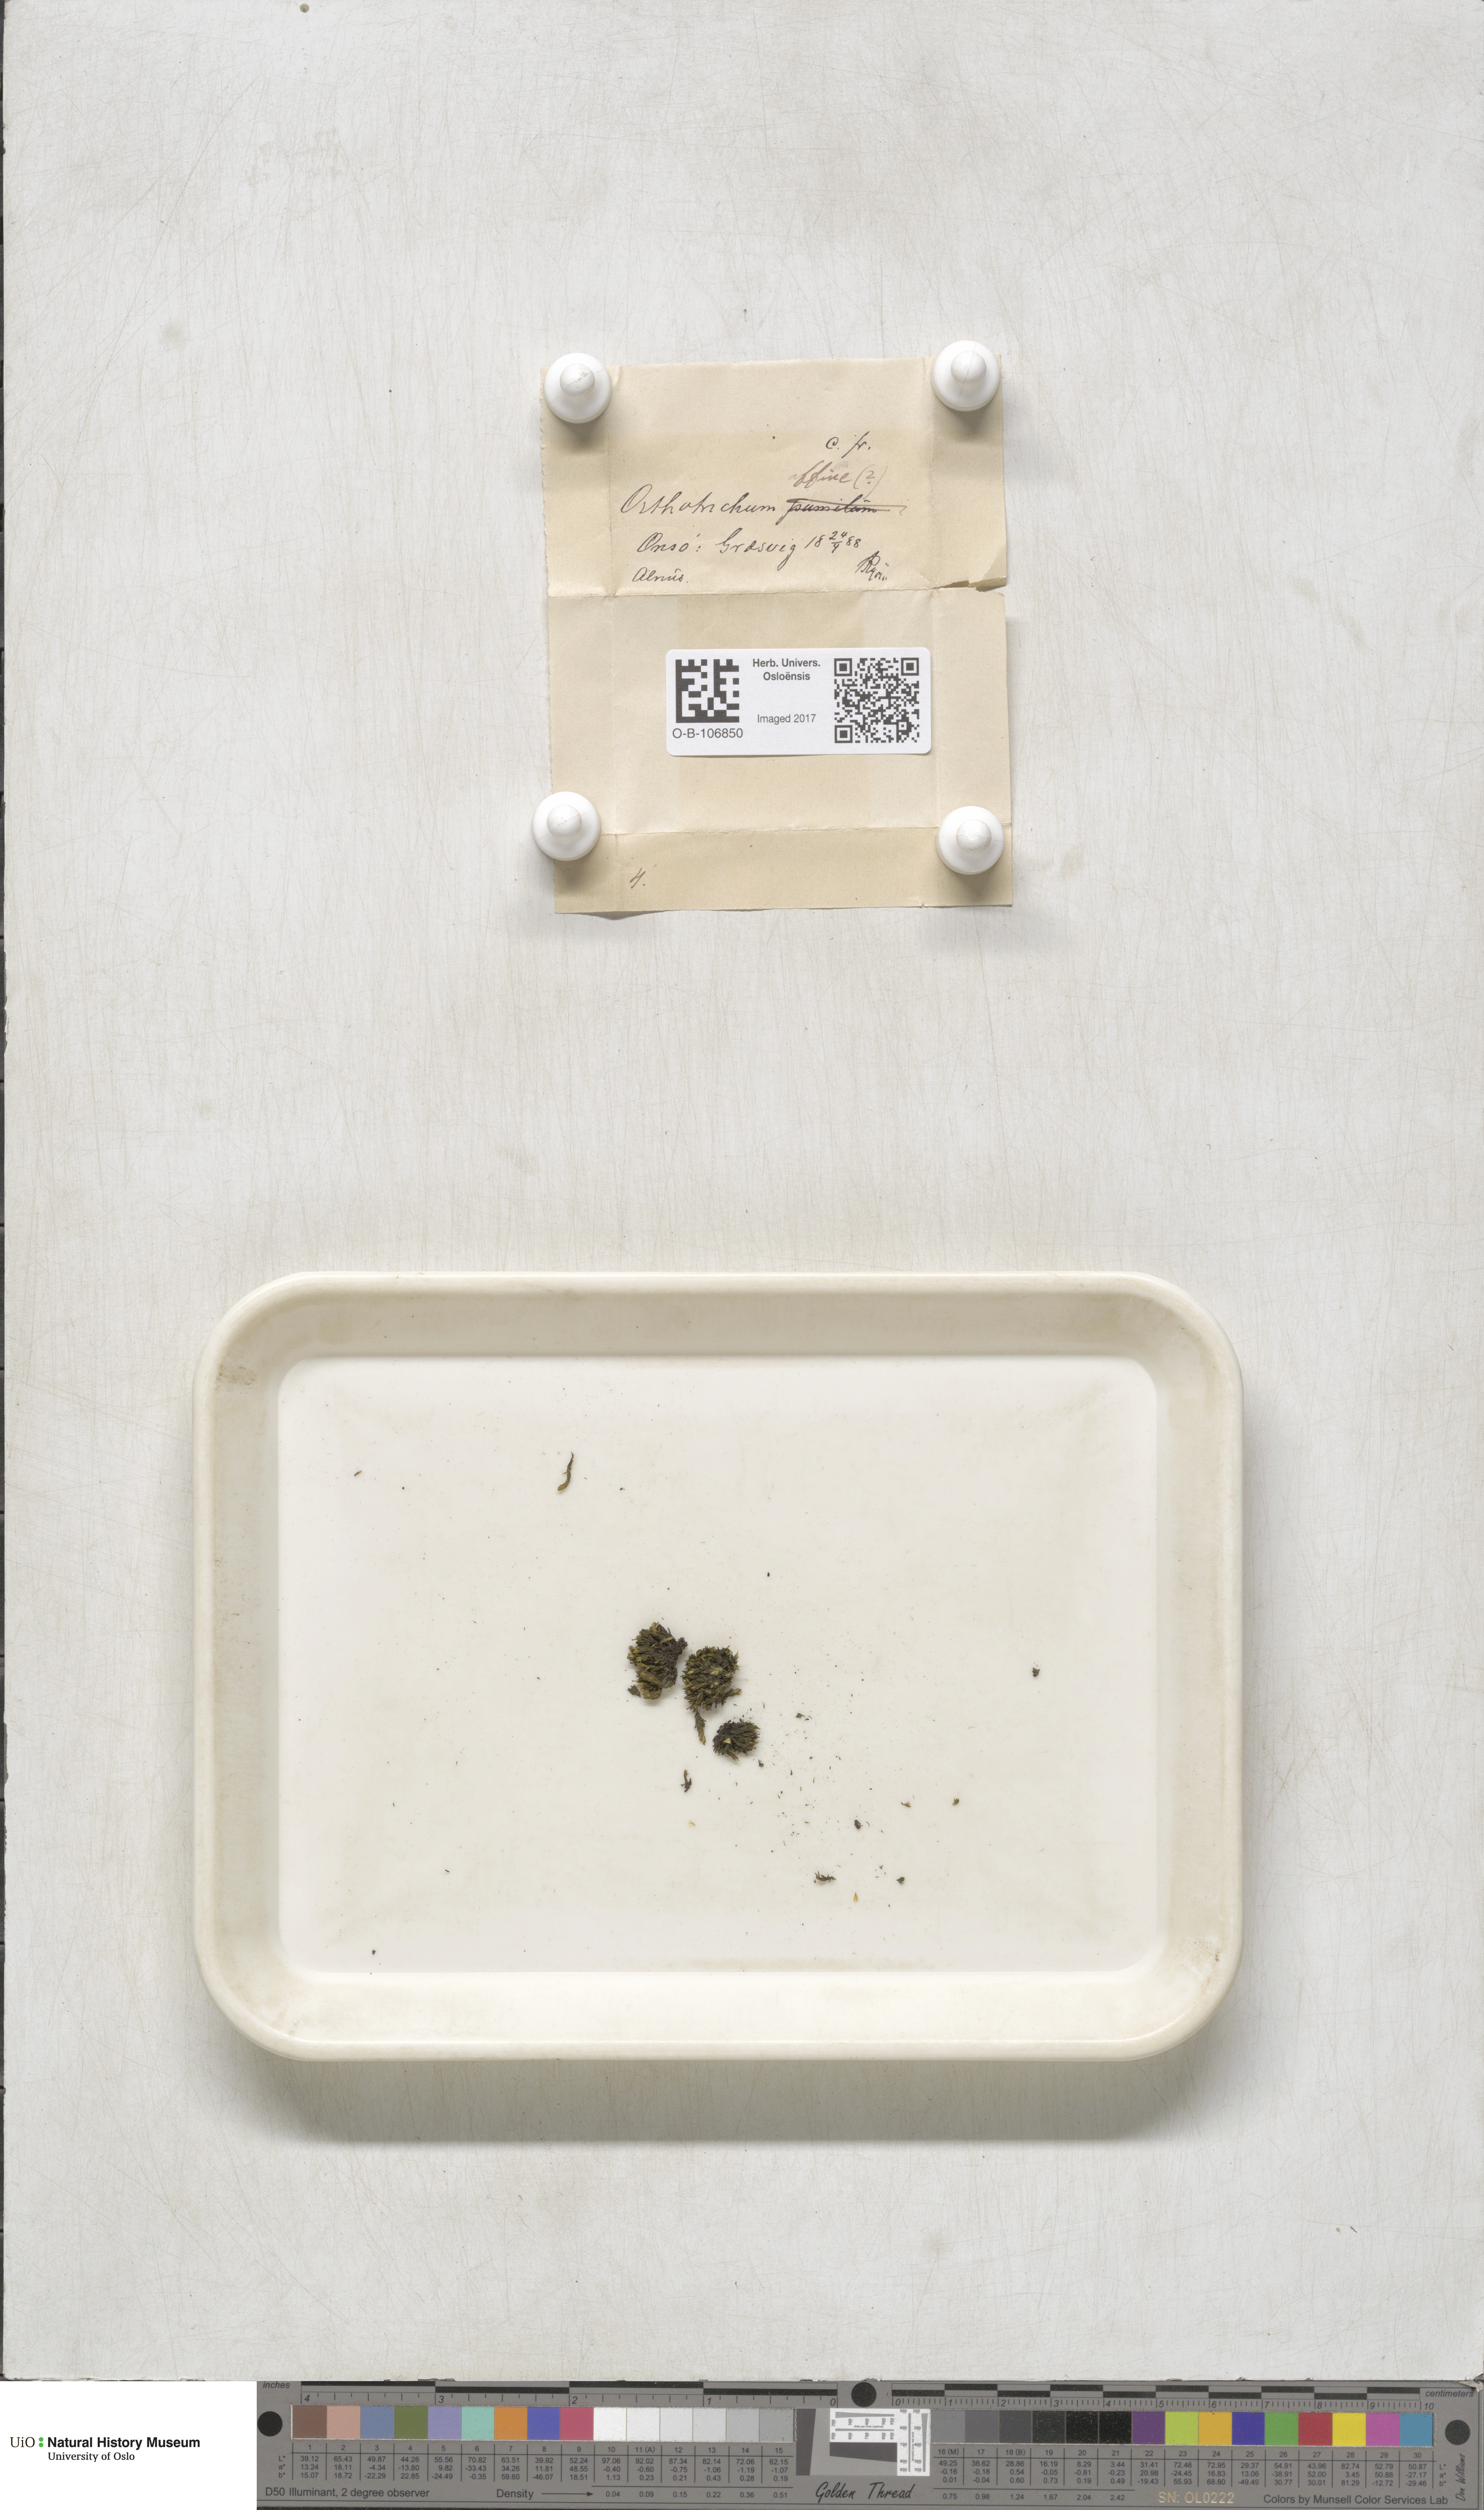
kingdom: Plantae
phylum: Bryophyta
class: Bryopsida
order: Orthotrichales
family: Orthotrichaceae
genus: Lewinskya
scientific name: Lewinskya affinis
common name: Wood bristle-moss
